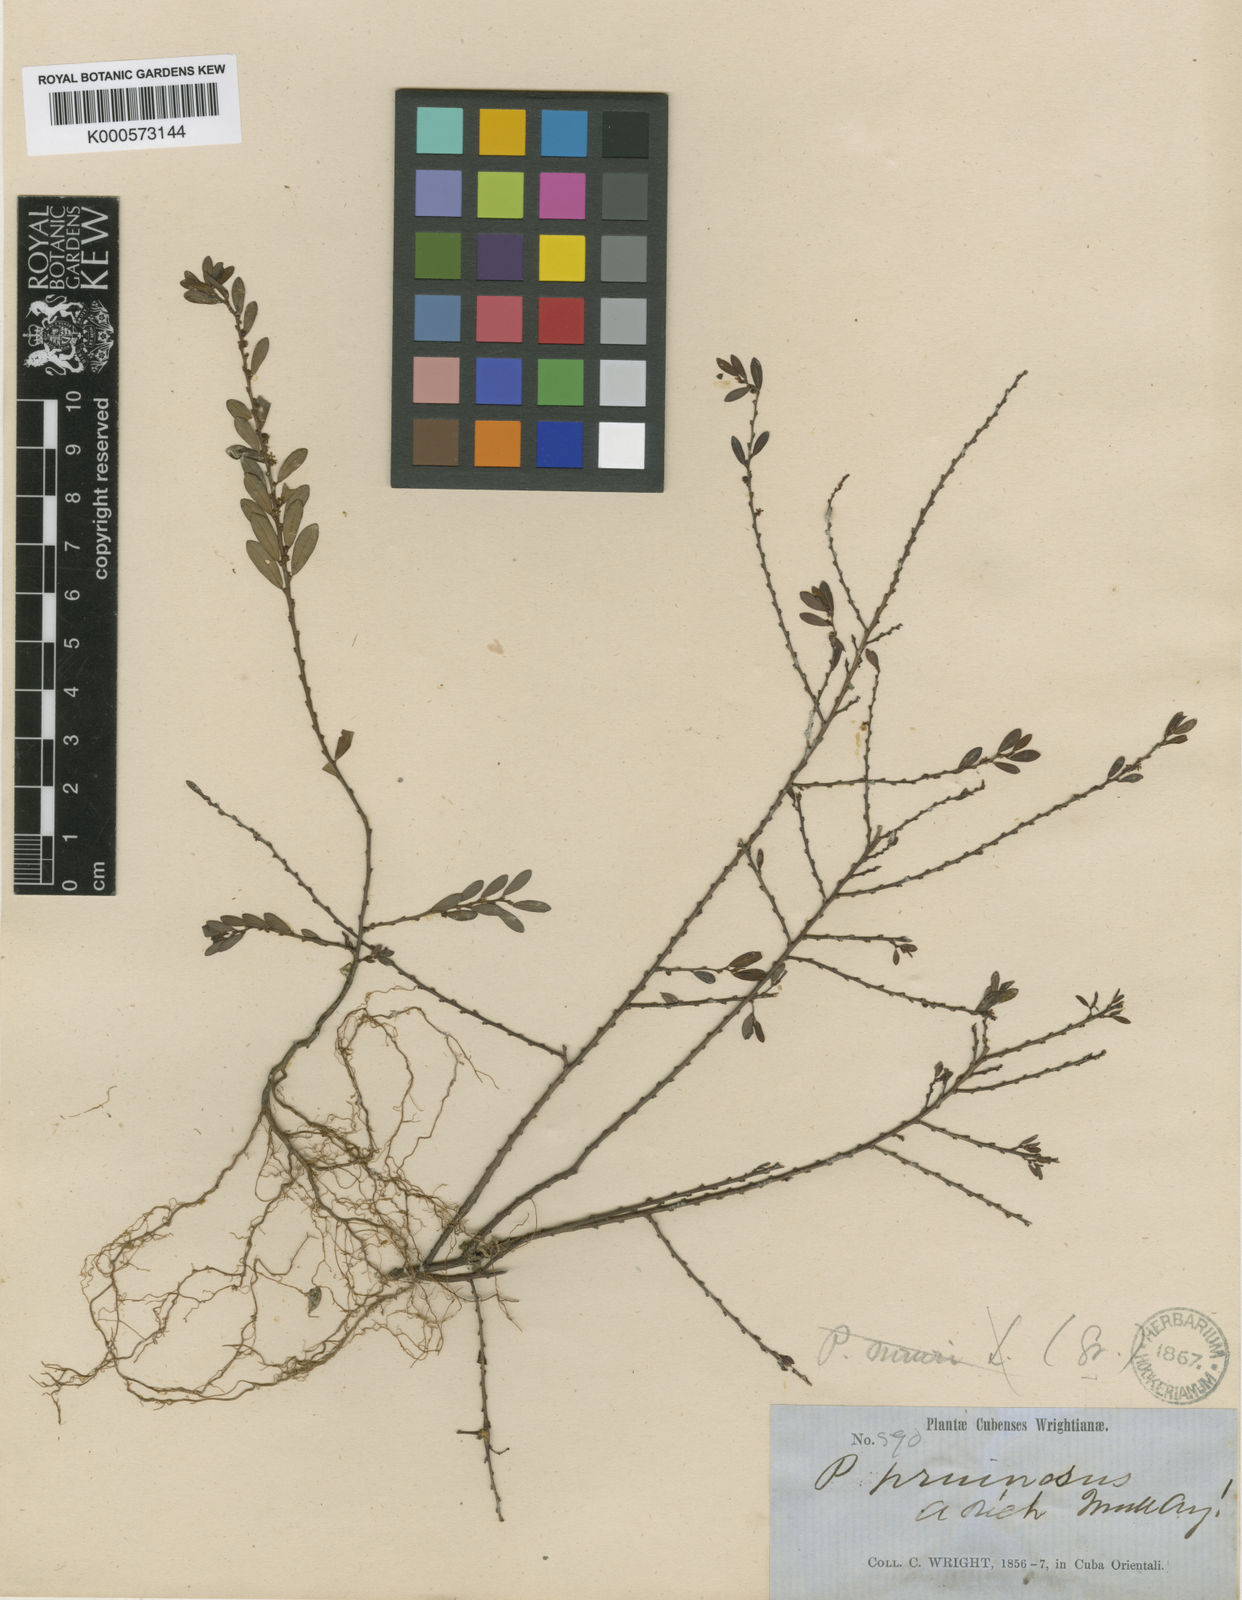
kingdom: Plantae
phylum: Tracheophyta
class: Magnoliopsida
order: Malpighiales
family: Phyllanthaceae
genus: Phyllanthus
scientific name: Phyllanthus discolor
